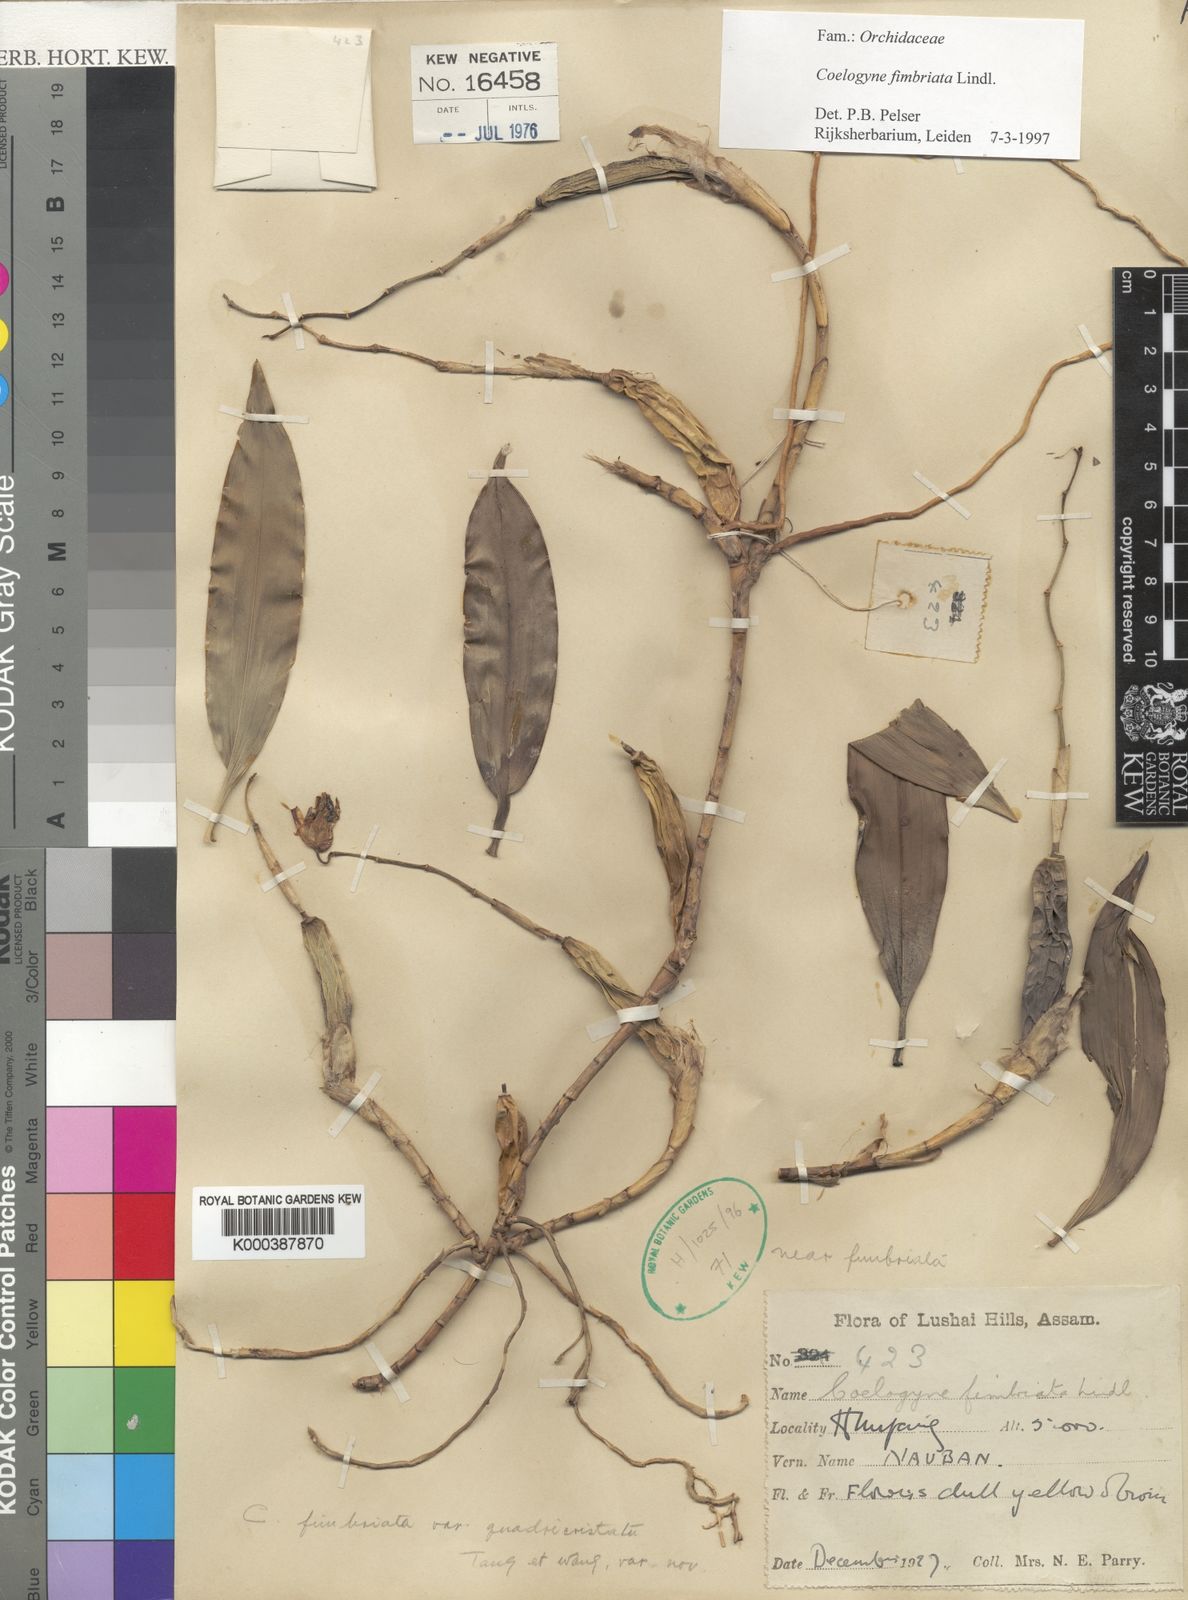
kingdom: Plantae
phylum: Tracheophyta
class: Liliopsida
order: Asparagales
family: Orchidaceae
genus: Coelogyne
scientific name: Coelogyne fimbriata
